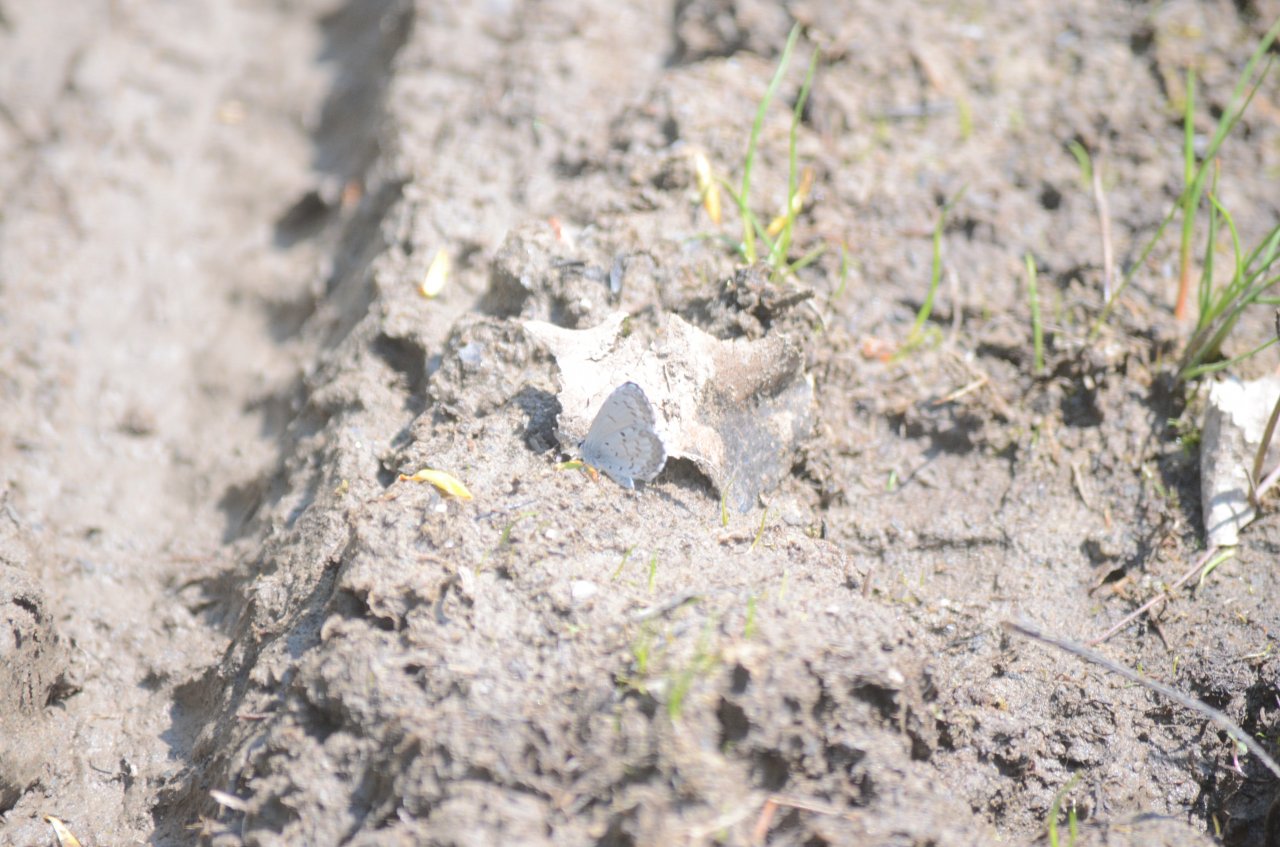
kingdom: Animalia
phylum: Arthropoda
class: Insecta
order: Lepidoptera
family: Lycaenidae
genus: Celastrina
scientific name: Celastrina
